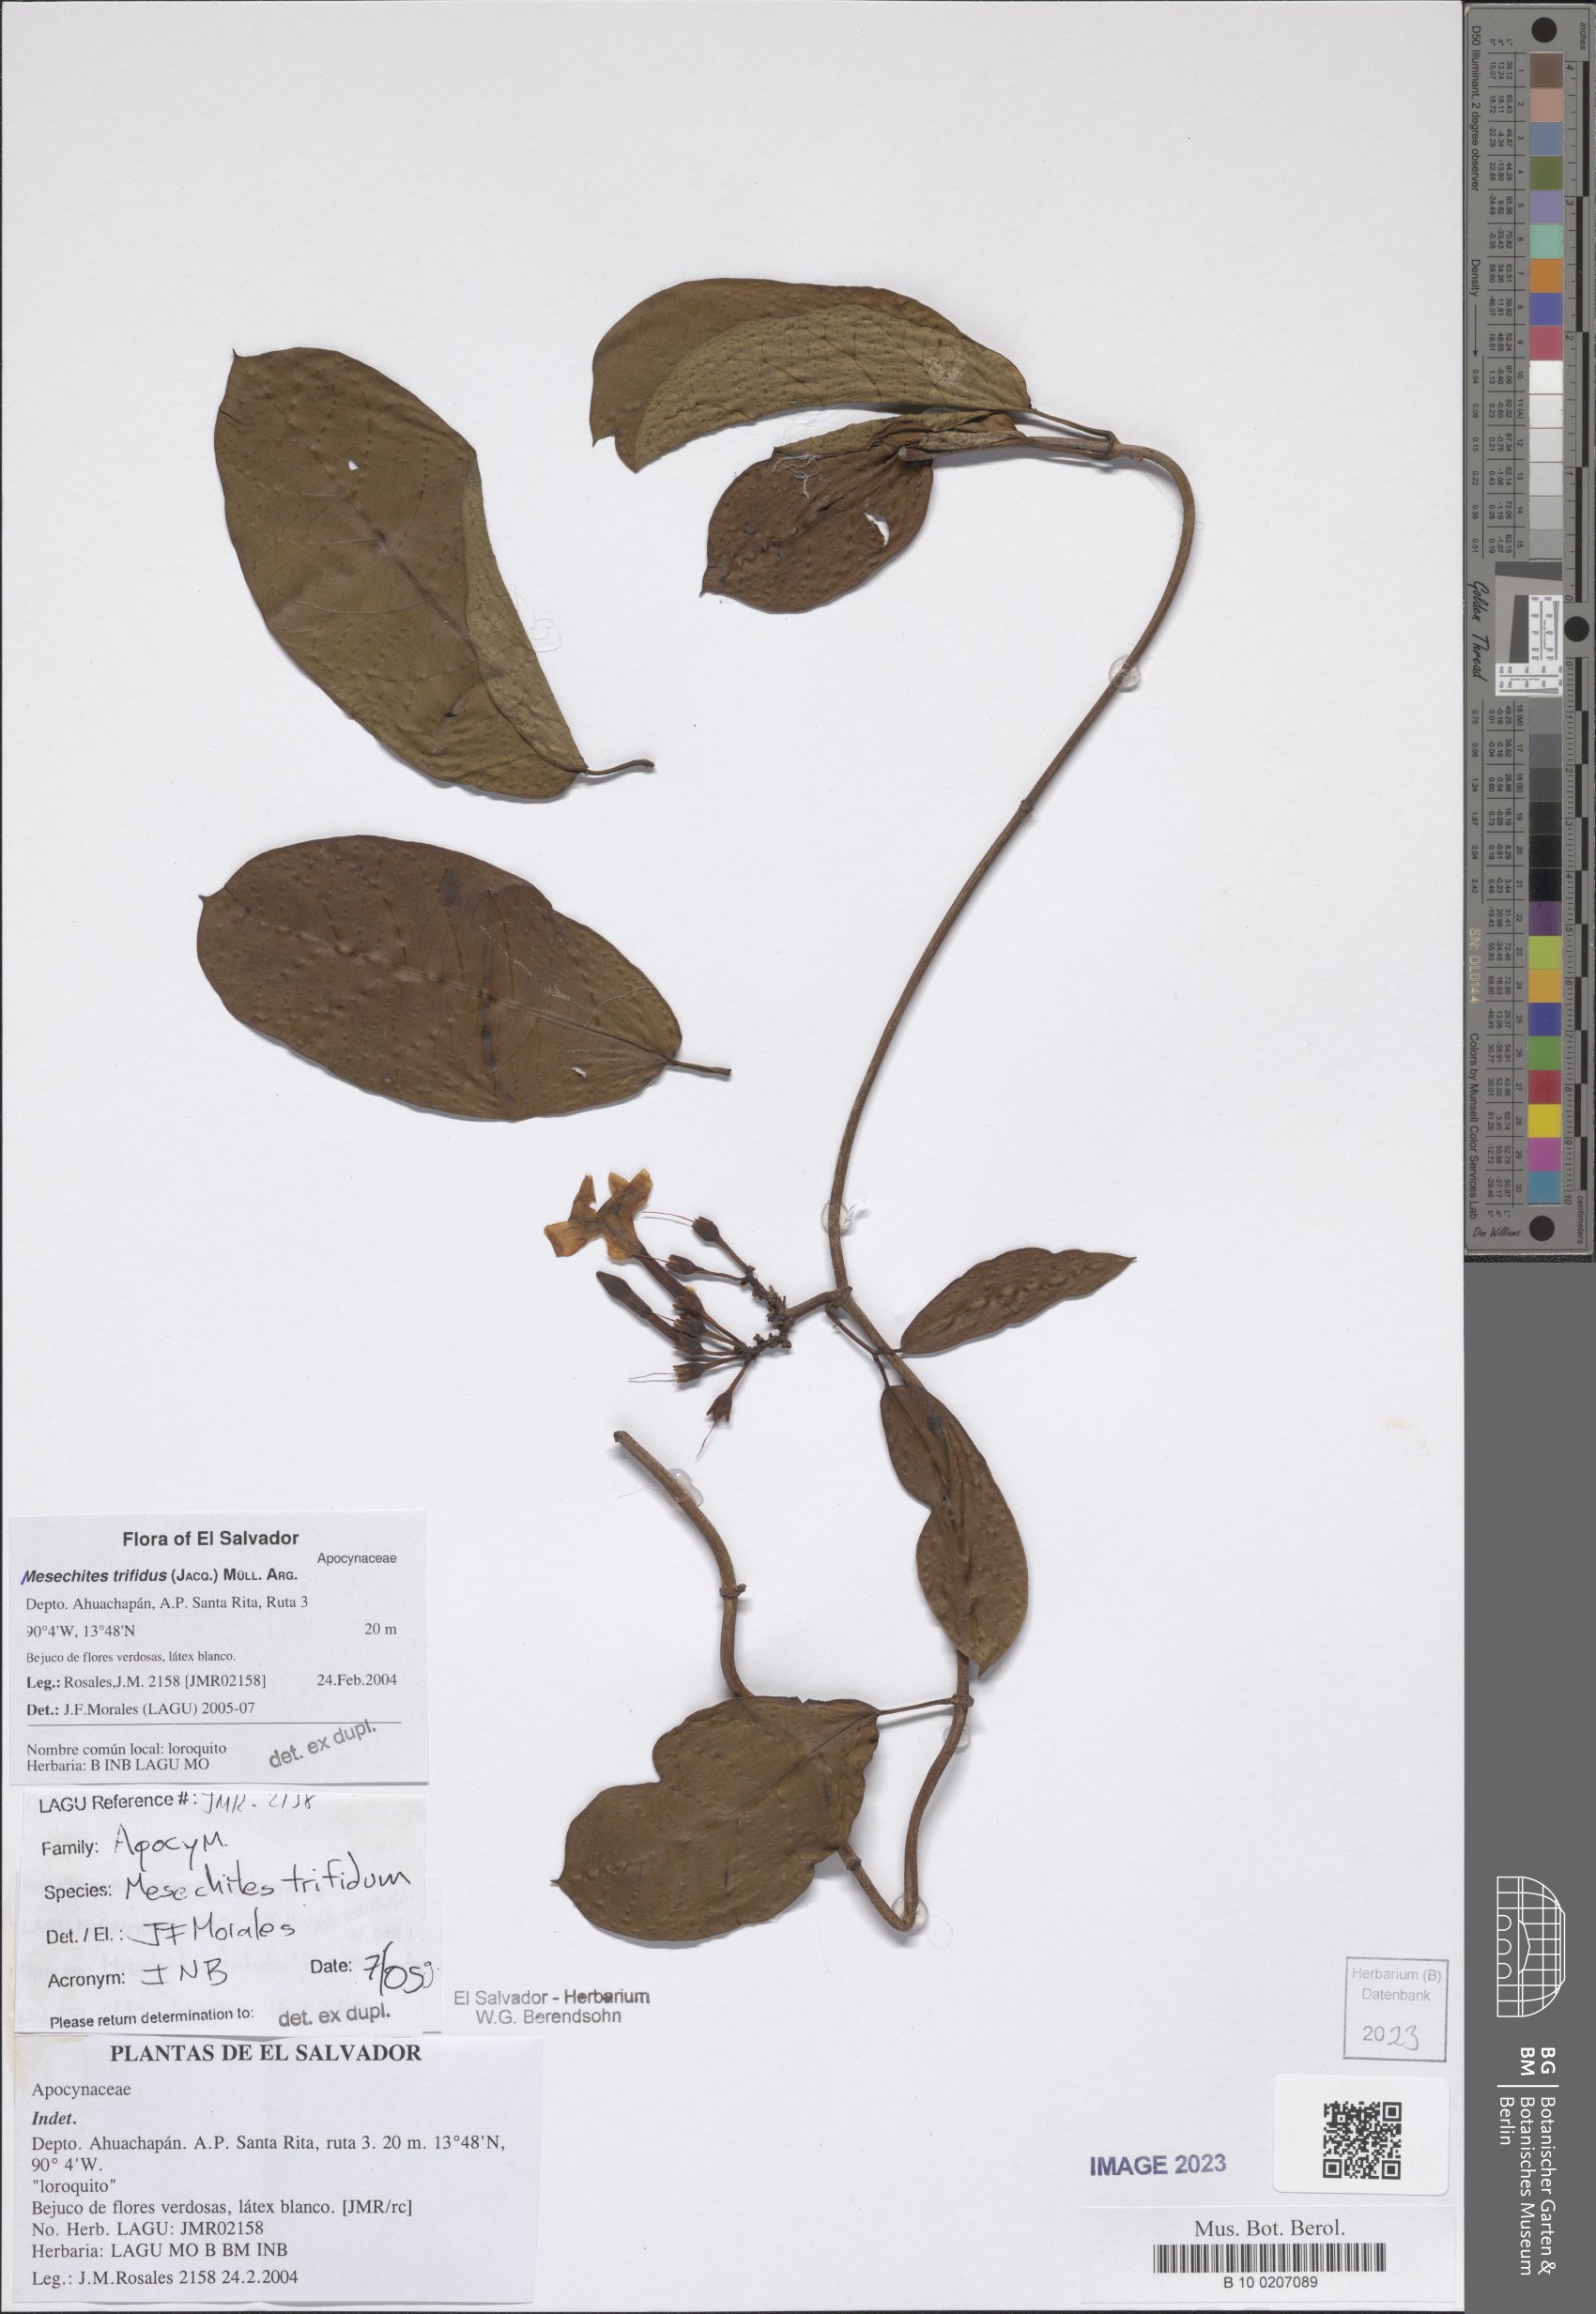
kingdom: Plantae
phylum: Tracheophyta
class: Magnoliopsida
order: Gentianales
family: Apocynaceae
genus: Mesechites
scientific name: Mesechites trifidus
